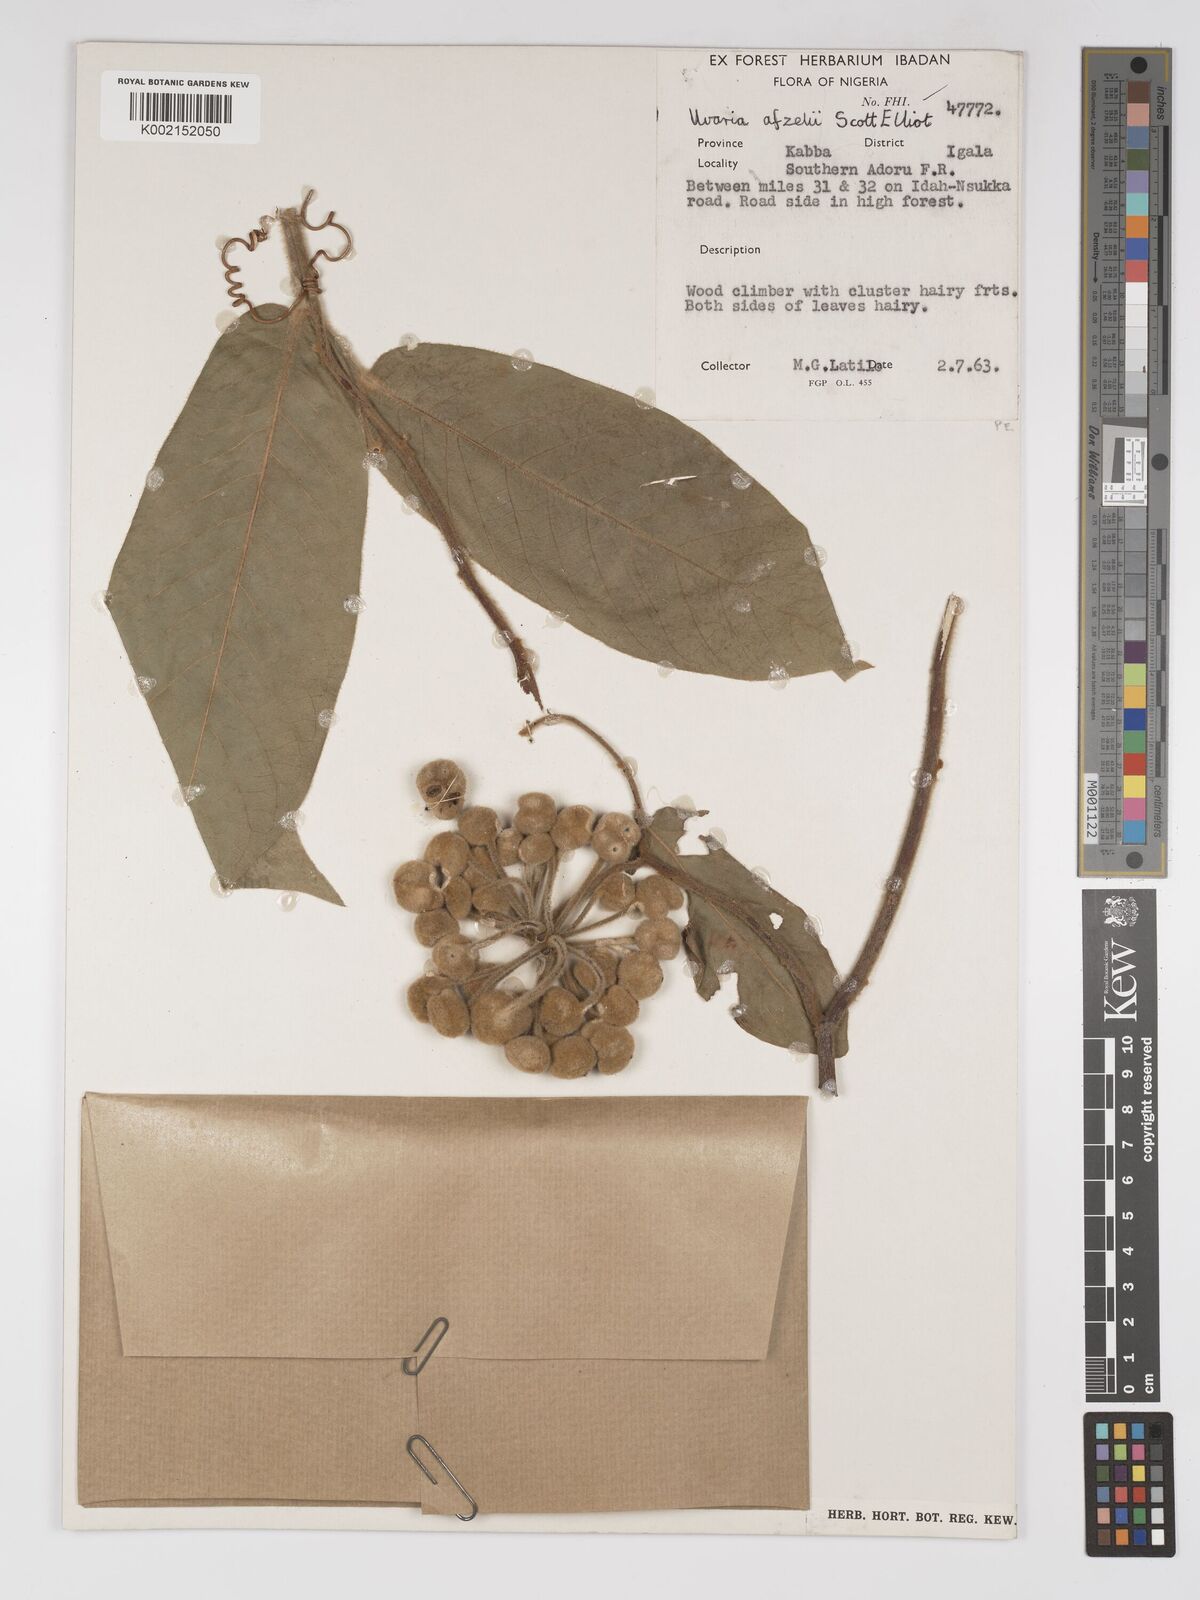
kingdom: Plantae
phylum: Tracheophyta
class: Magnoliopsida
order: Magnoliales
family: Annonaceae
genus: Uvaria
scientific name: Uvaria afzelii
